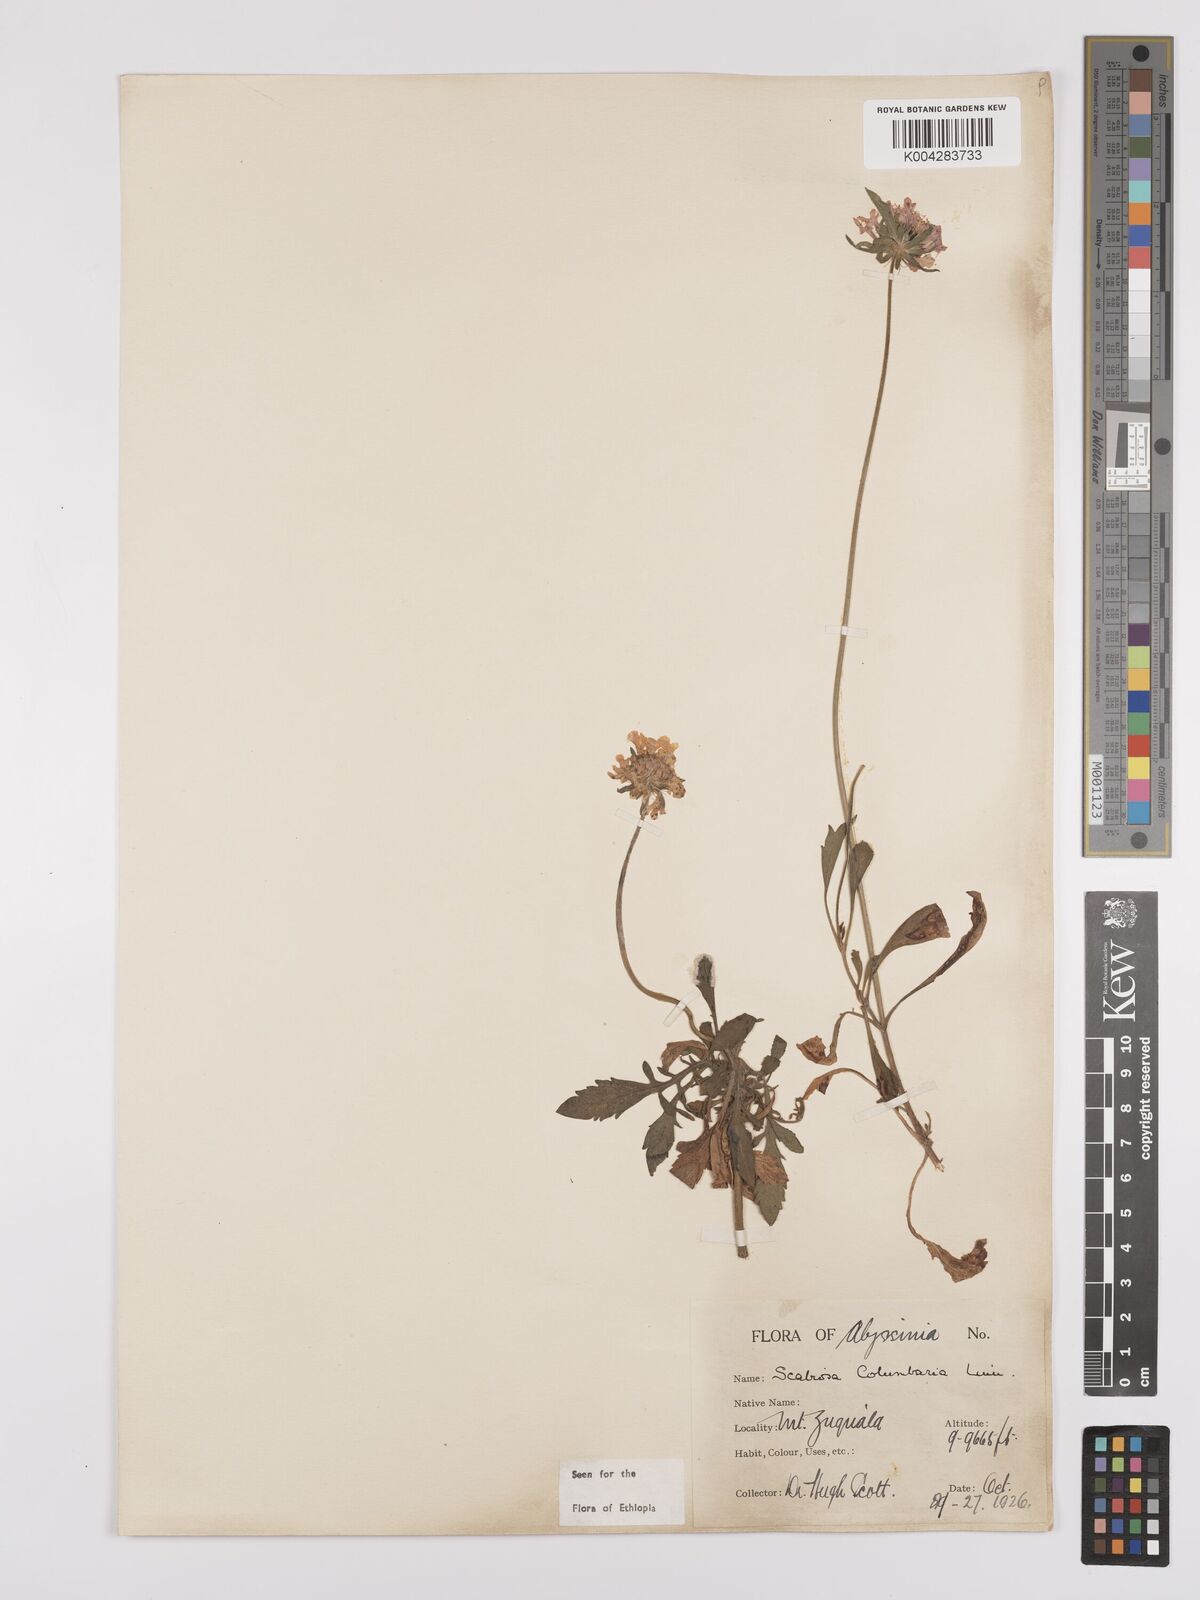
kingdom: Plantae
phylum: Tracheophyta
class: Magnoliopsida
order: Dipsacales
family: Caprifoliaceae
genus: Scabiosa
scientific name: Scabiosa columbaria
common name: Small scabious
